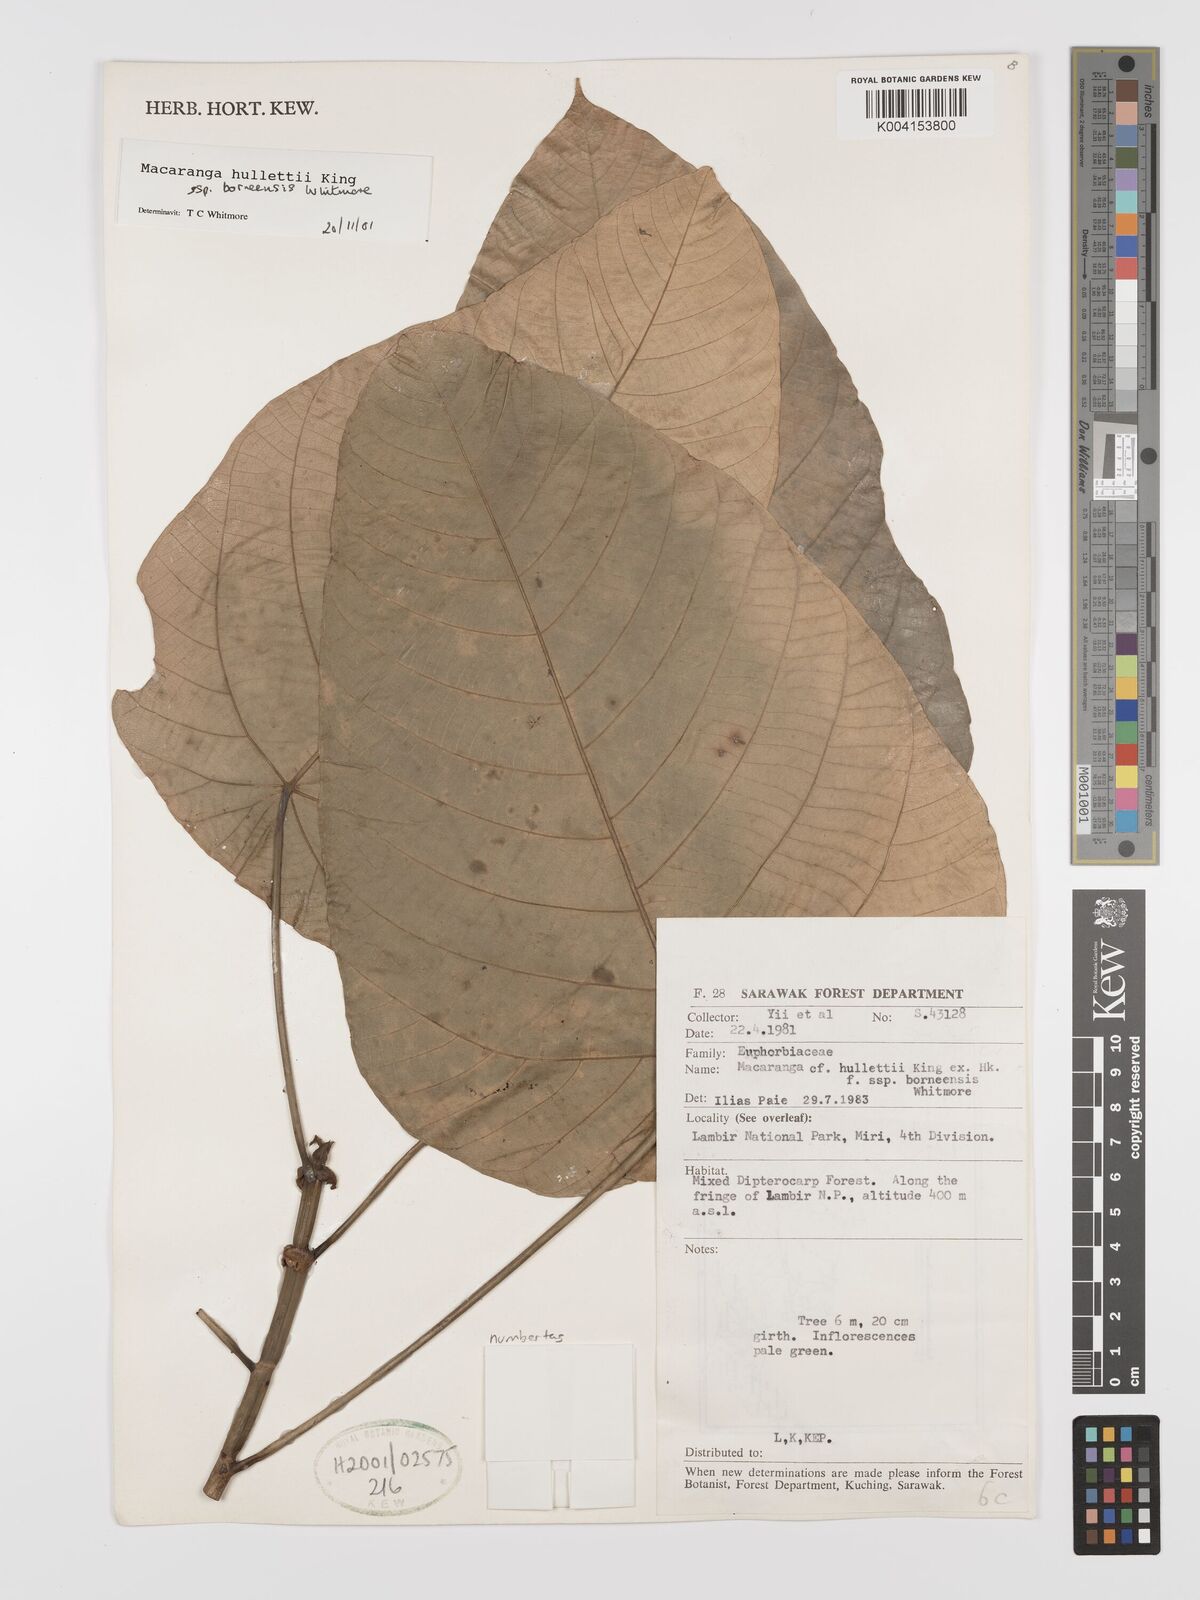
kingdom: Plantae
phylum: Tracheophyta
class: Magnoliopsida
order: Malpighiales
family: Euphorbiaceae
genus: Macaranga
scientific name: Macaranga hullettii
